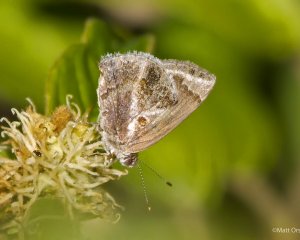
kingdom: Animalia
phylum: Arthropoda
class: Insecta
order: Lepidoptera
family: Lycaenidae
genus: Strymon
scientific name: Strymon bazochii
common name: Lantana Scrub-Hairstreak
